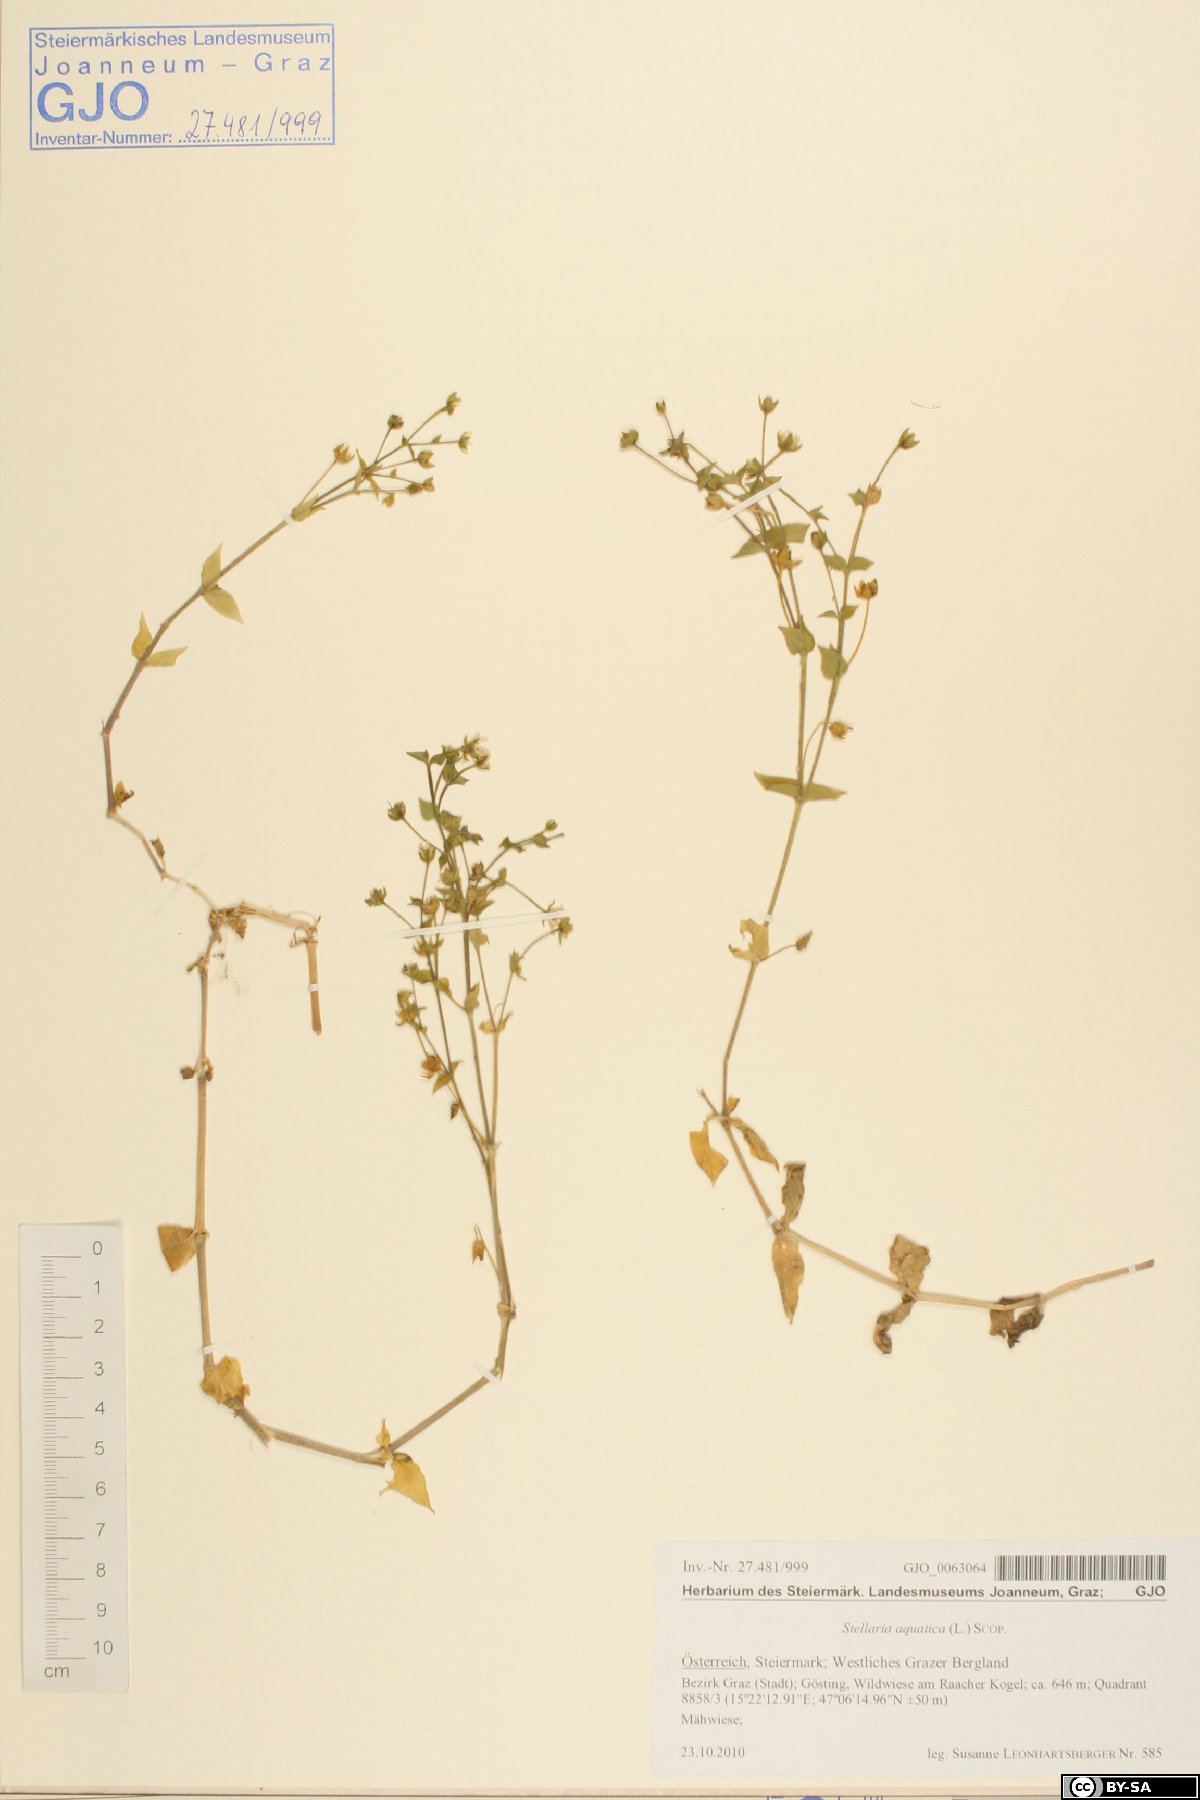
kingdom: Plantae
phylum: Tracheophyta
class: Magnoliopsida
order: Caryophyllales
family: Caryophyllaceae
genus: Stellaria
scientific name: Stellaria aquatica
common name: Water chickweed
